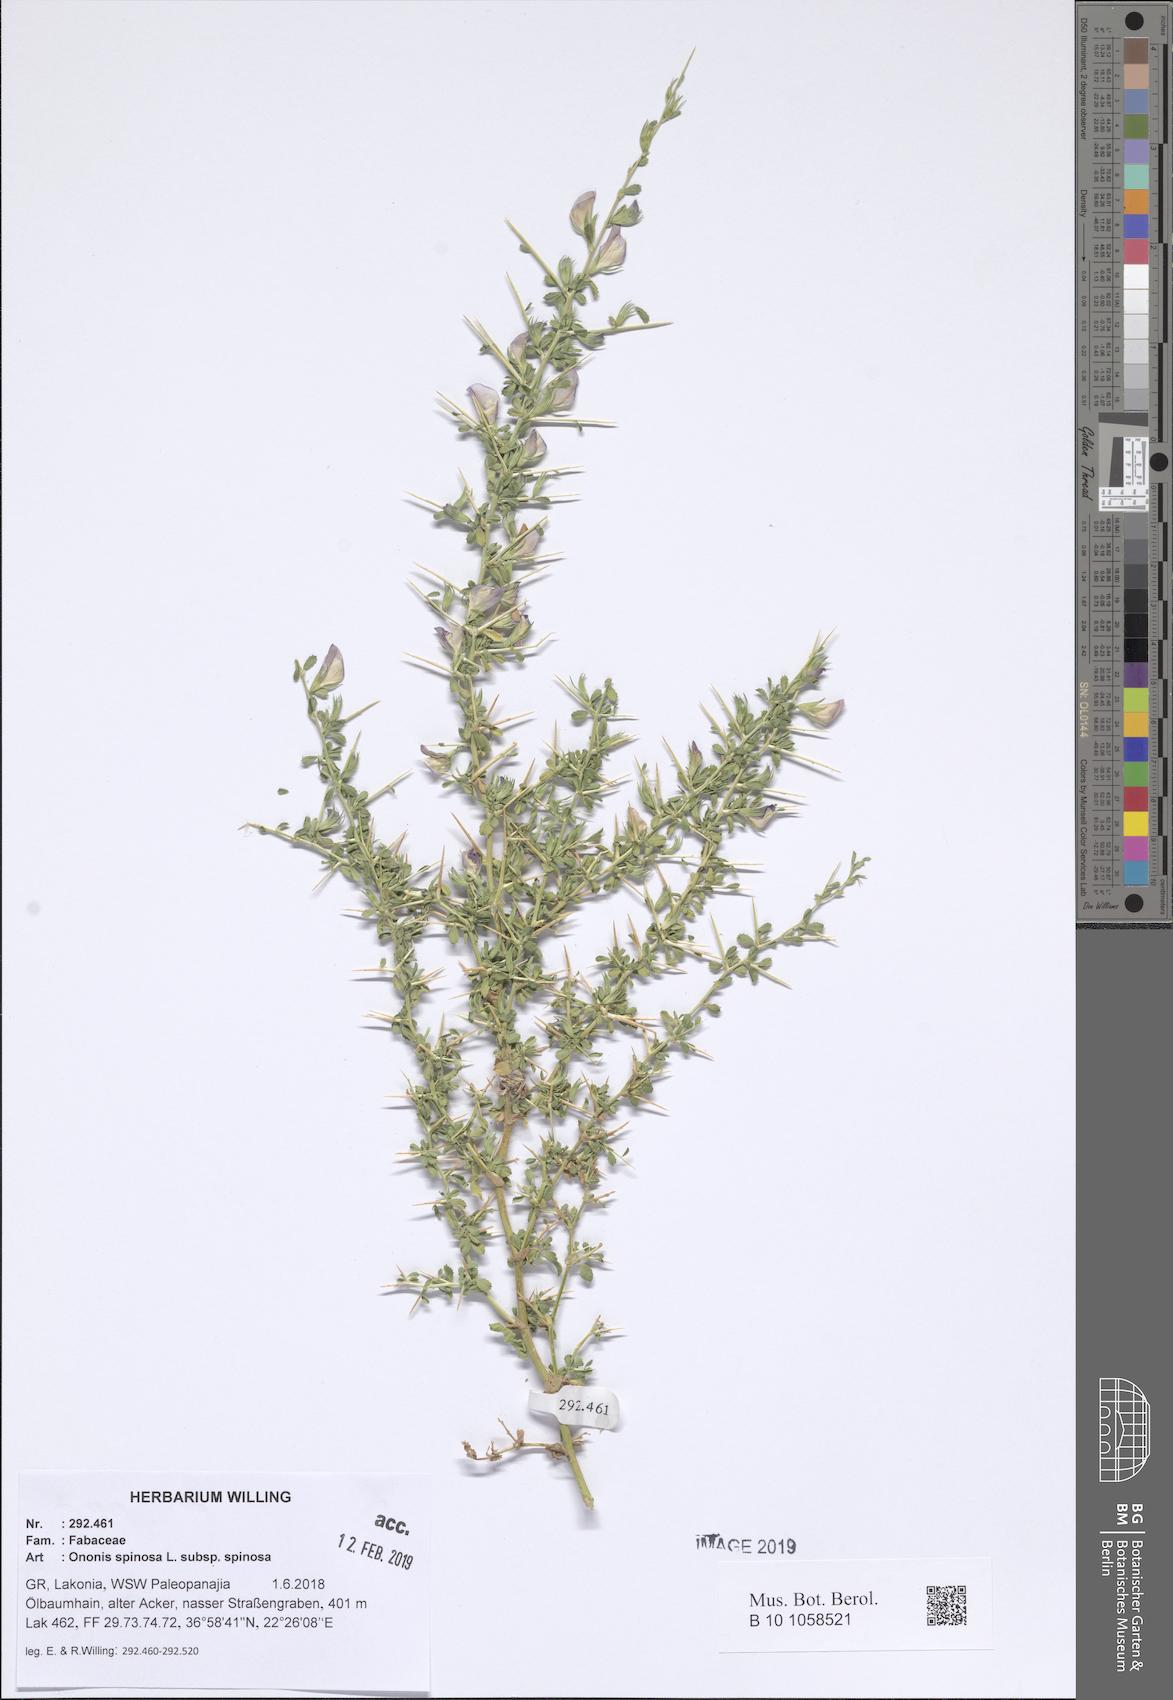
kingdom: Plantae
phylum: Tracheophyta
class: Magnoliopsida
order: Fabales
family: Fabaceae
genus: Ononis
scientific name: Ononis spinosa
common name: Spiny restharrow
